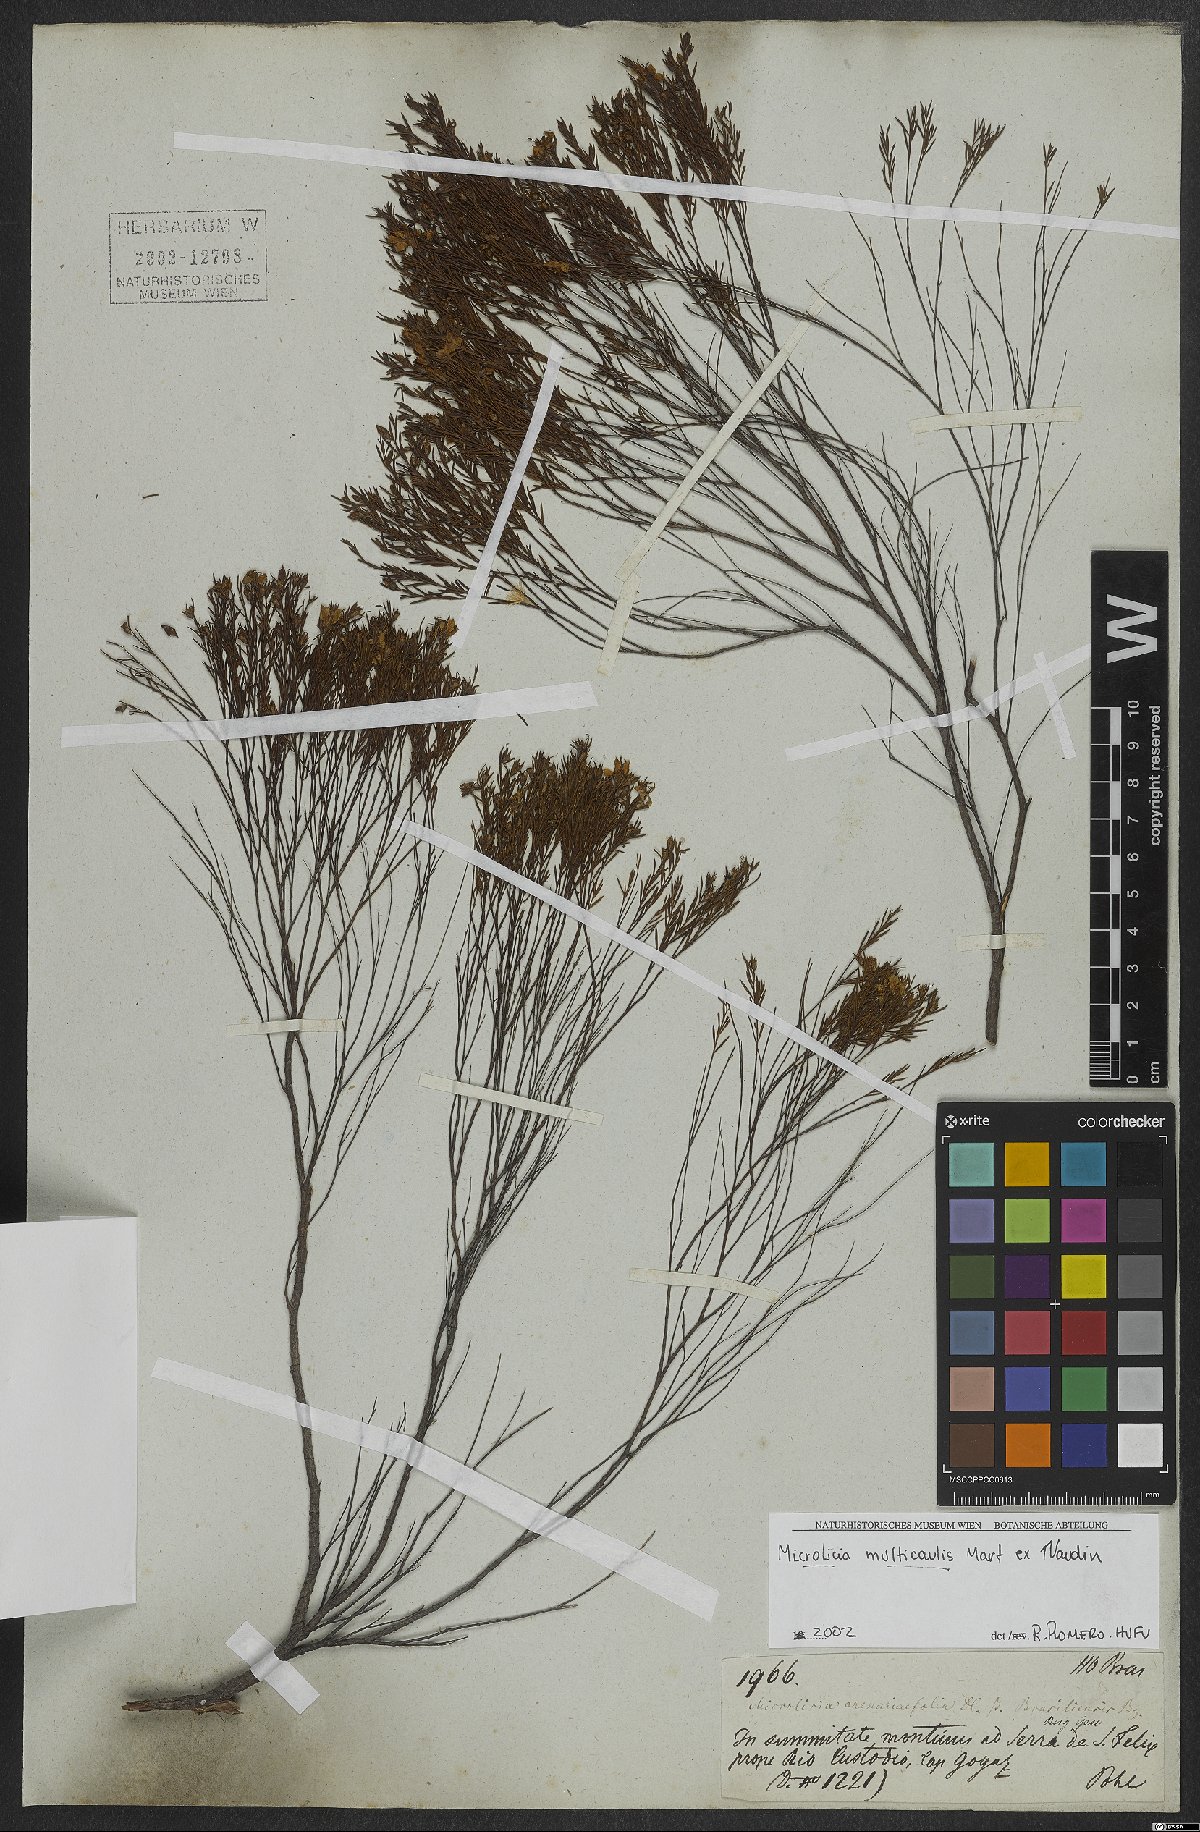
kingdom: Plantae
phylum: Tracheophyta
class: Magnoliopsida
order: Myrtales
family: Melastomataceae
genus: Microlicia
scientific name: Microlicia multicaulis
